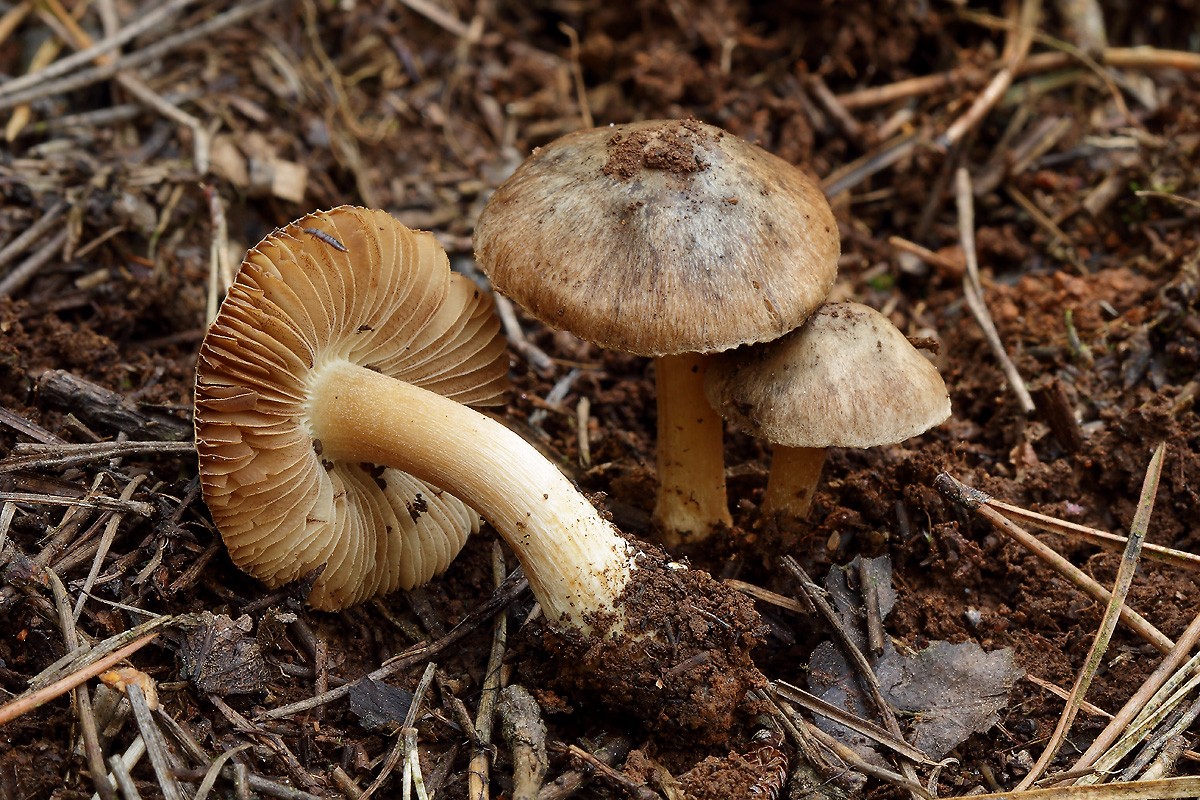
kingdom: Fungi
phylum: Basidiomycota
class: Agaricomycetes
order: Agaricales
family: Inocybaceae
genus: Inocybe
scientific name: Inocybe lutescens
